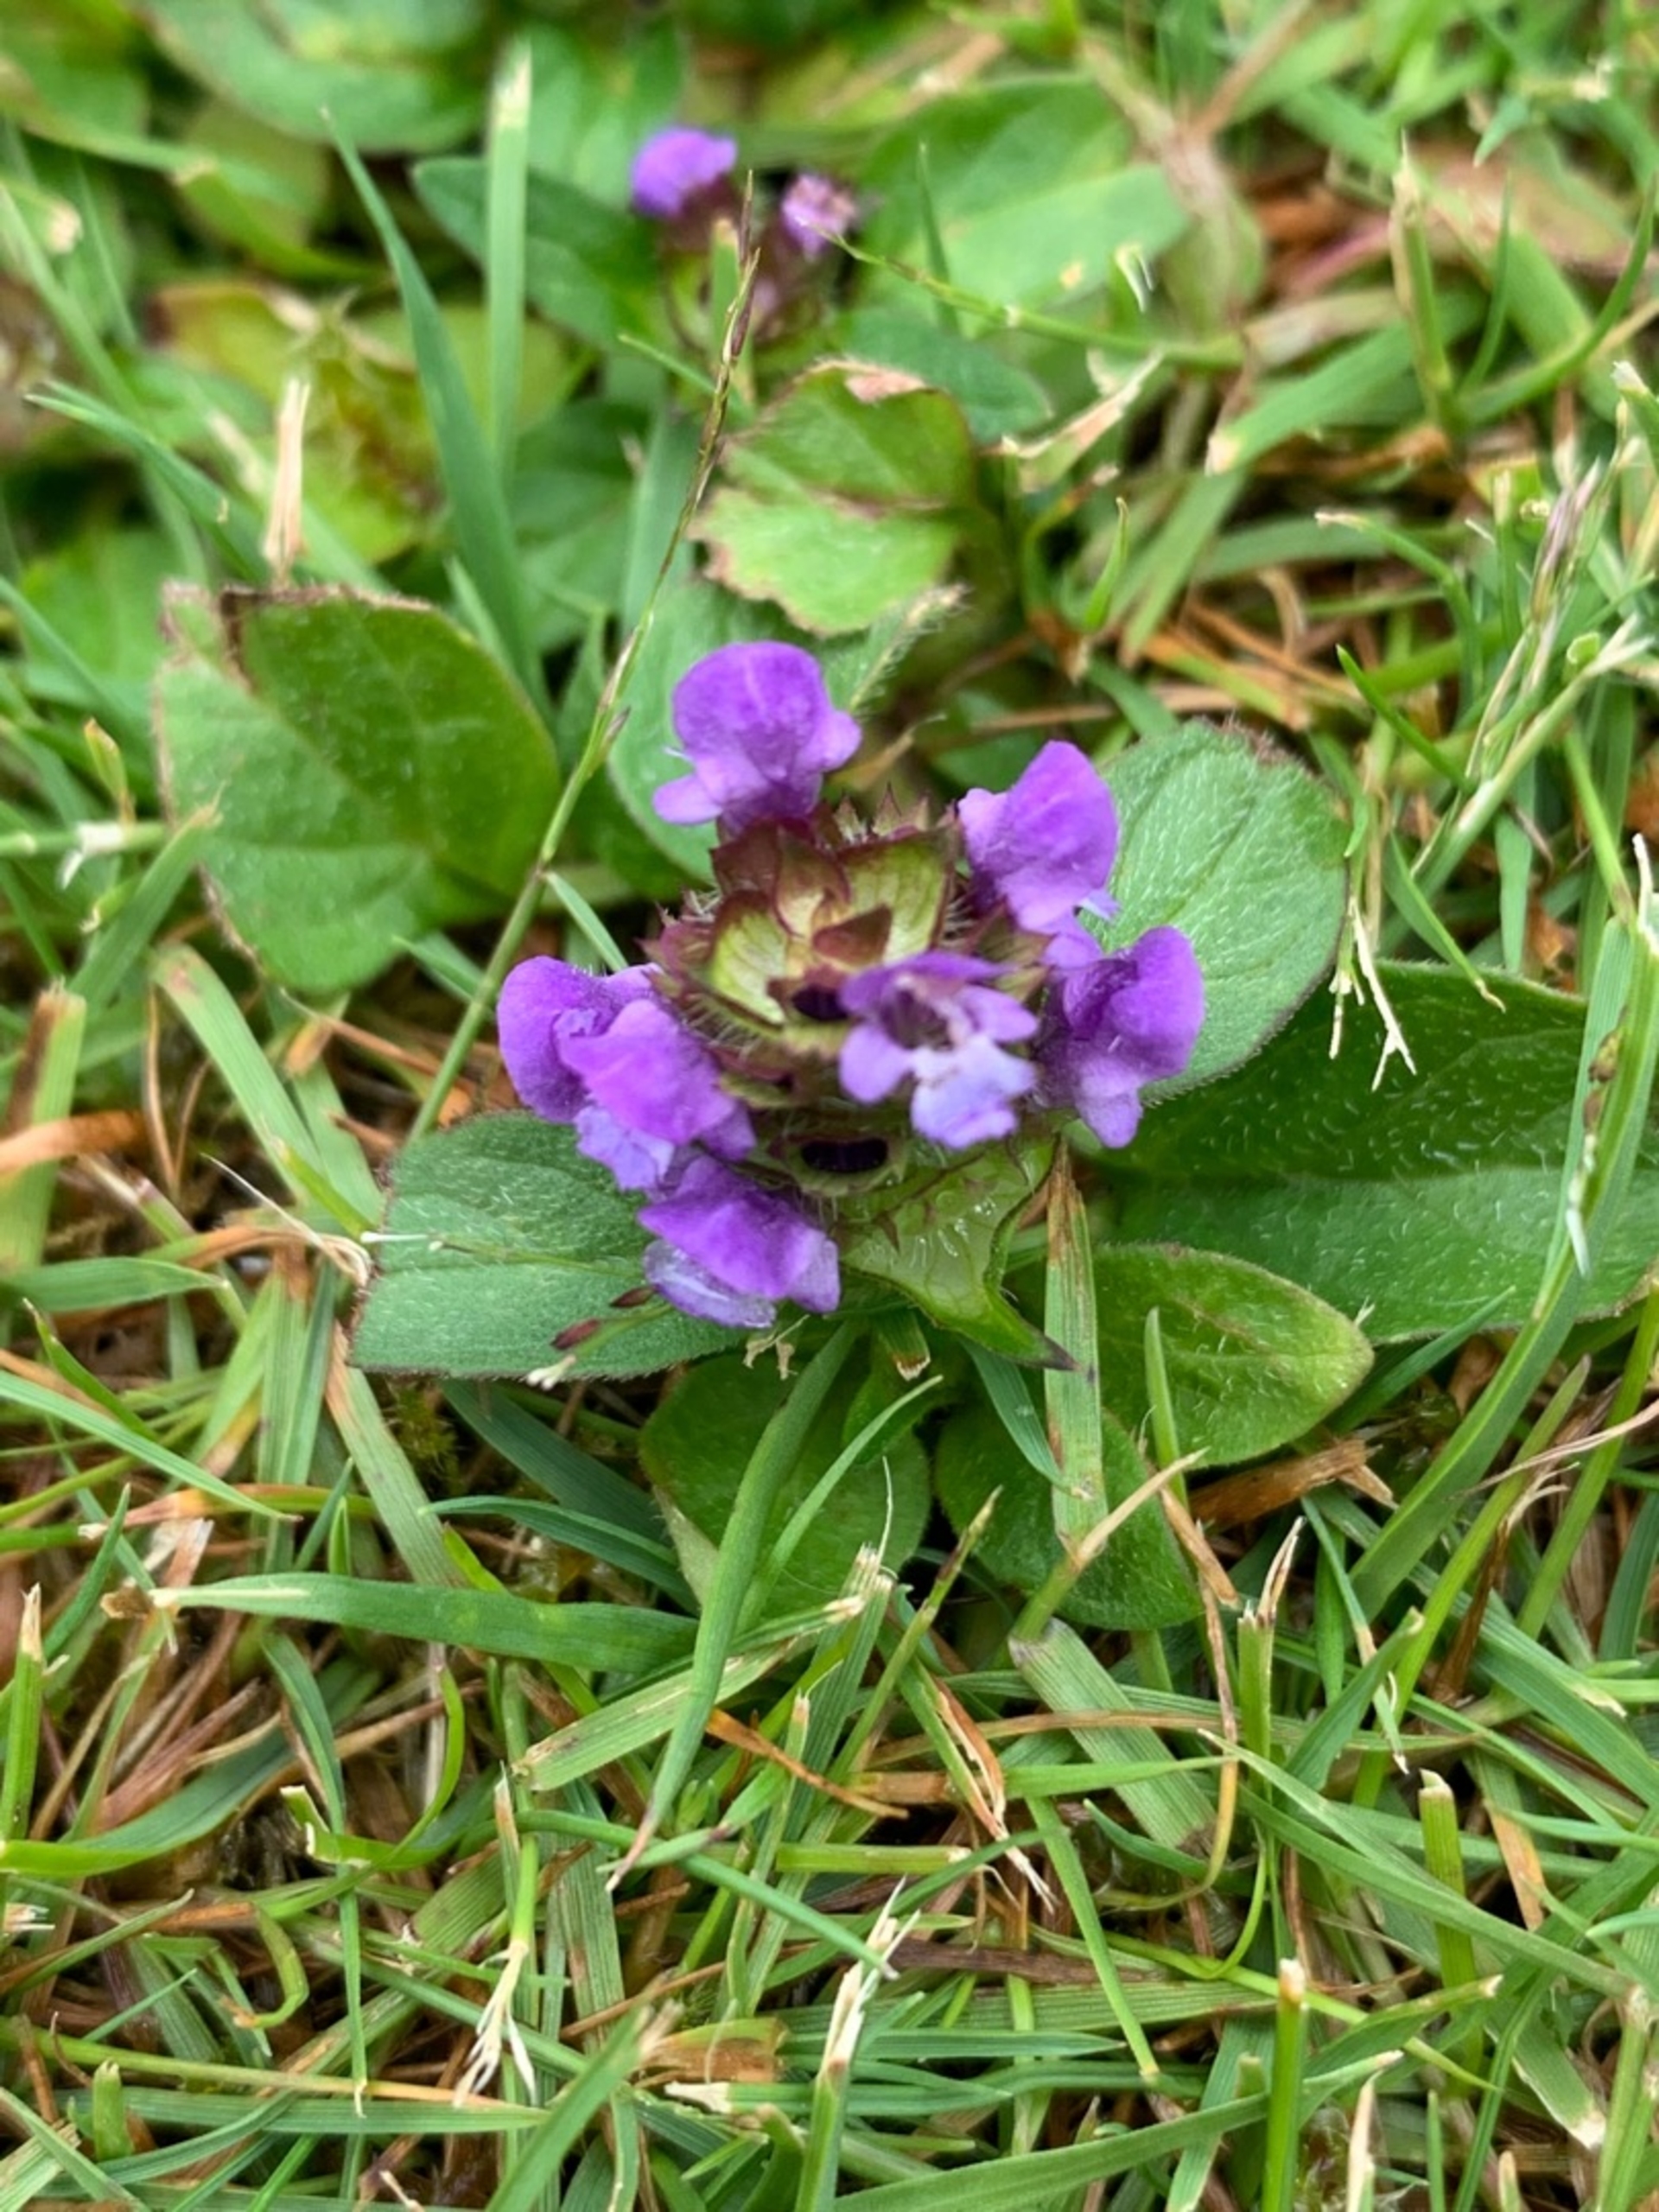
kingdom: Plantae
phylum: Tracheophyta
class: Magnoliopsida
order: Lamiales
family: Lamiaceae
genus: Prunella
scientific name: Prunella vulgaris
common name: Almindelig brunelle
